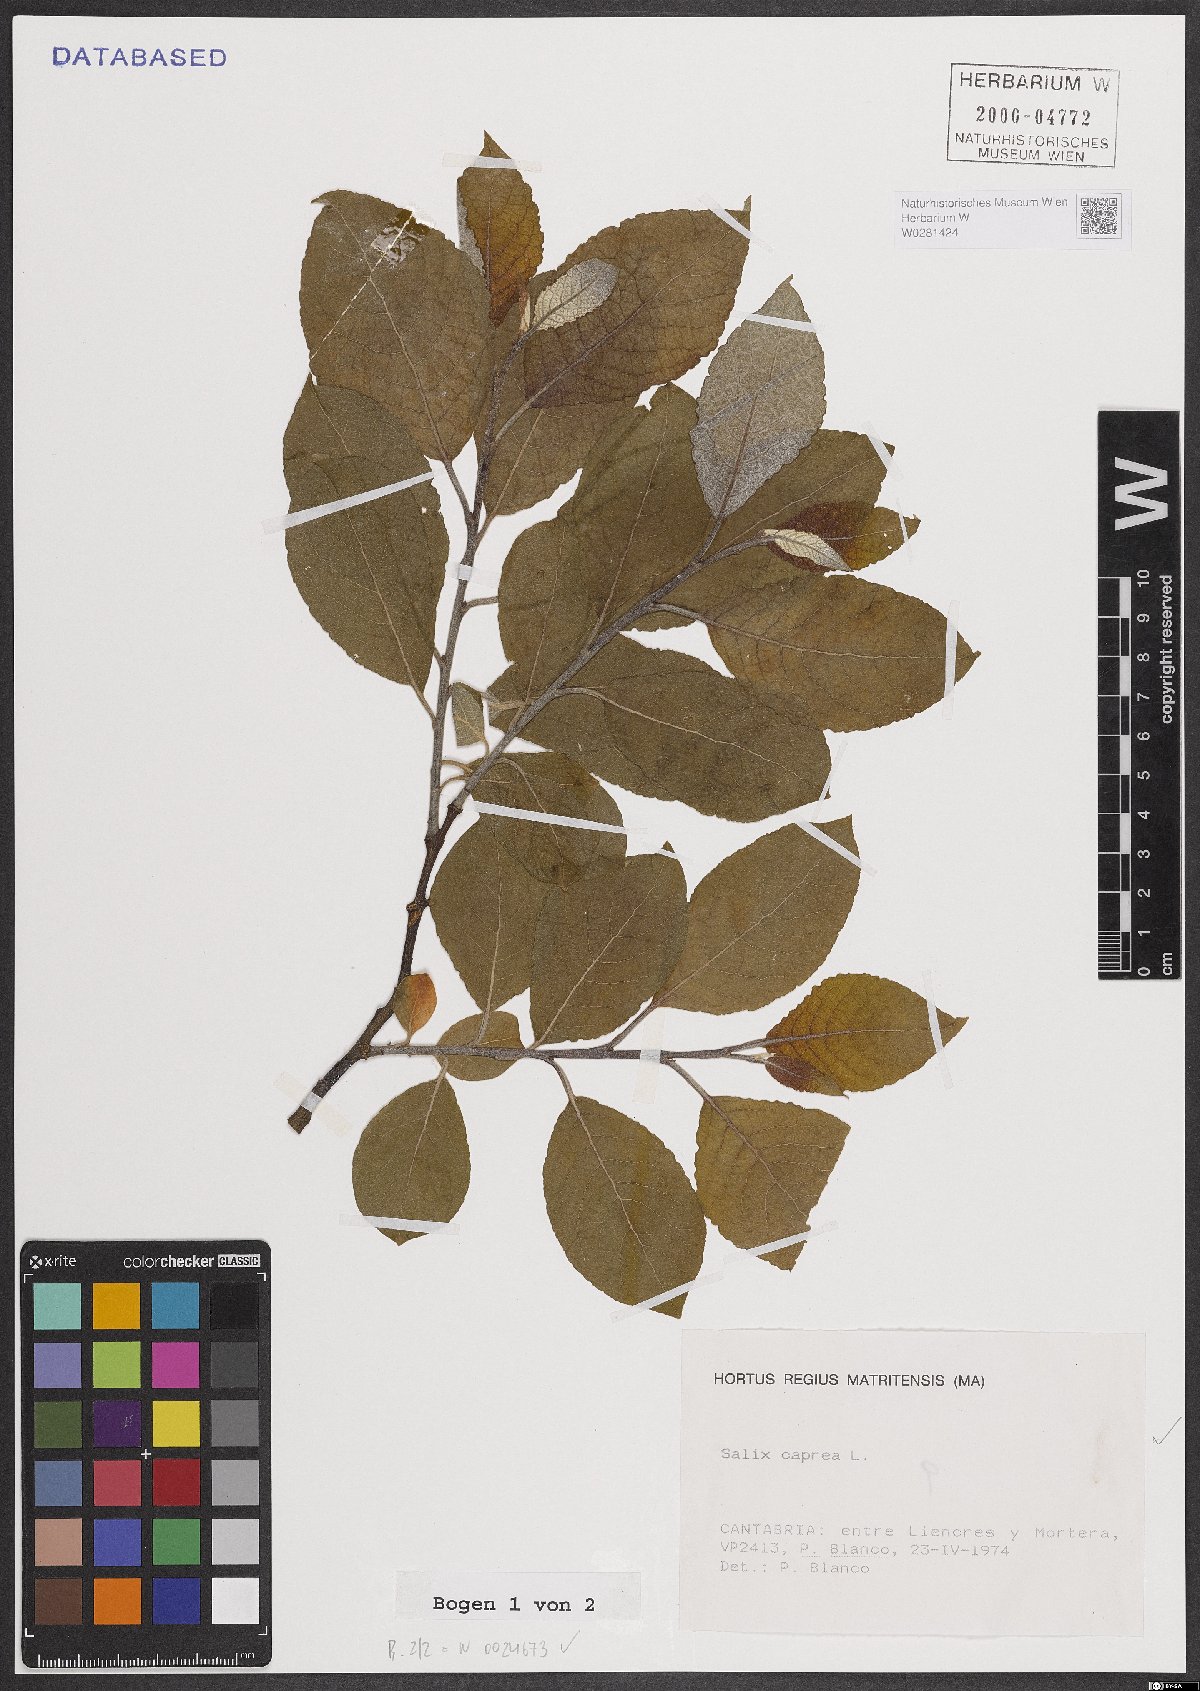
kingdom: Plantae
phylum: Tracheophyta
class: Magnoliopsida
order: Malpighiales
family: Salicaceae
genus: Salix
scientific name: Salix caprea
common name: Goat willow
